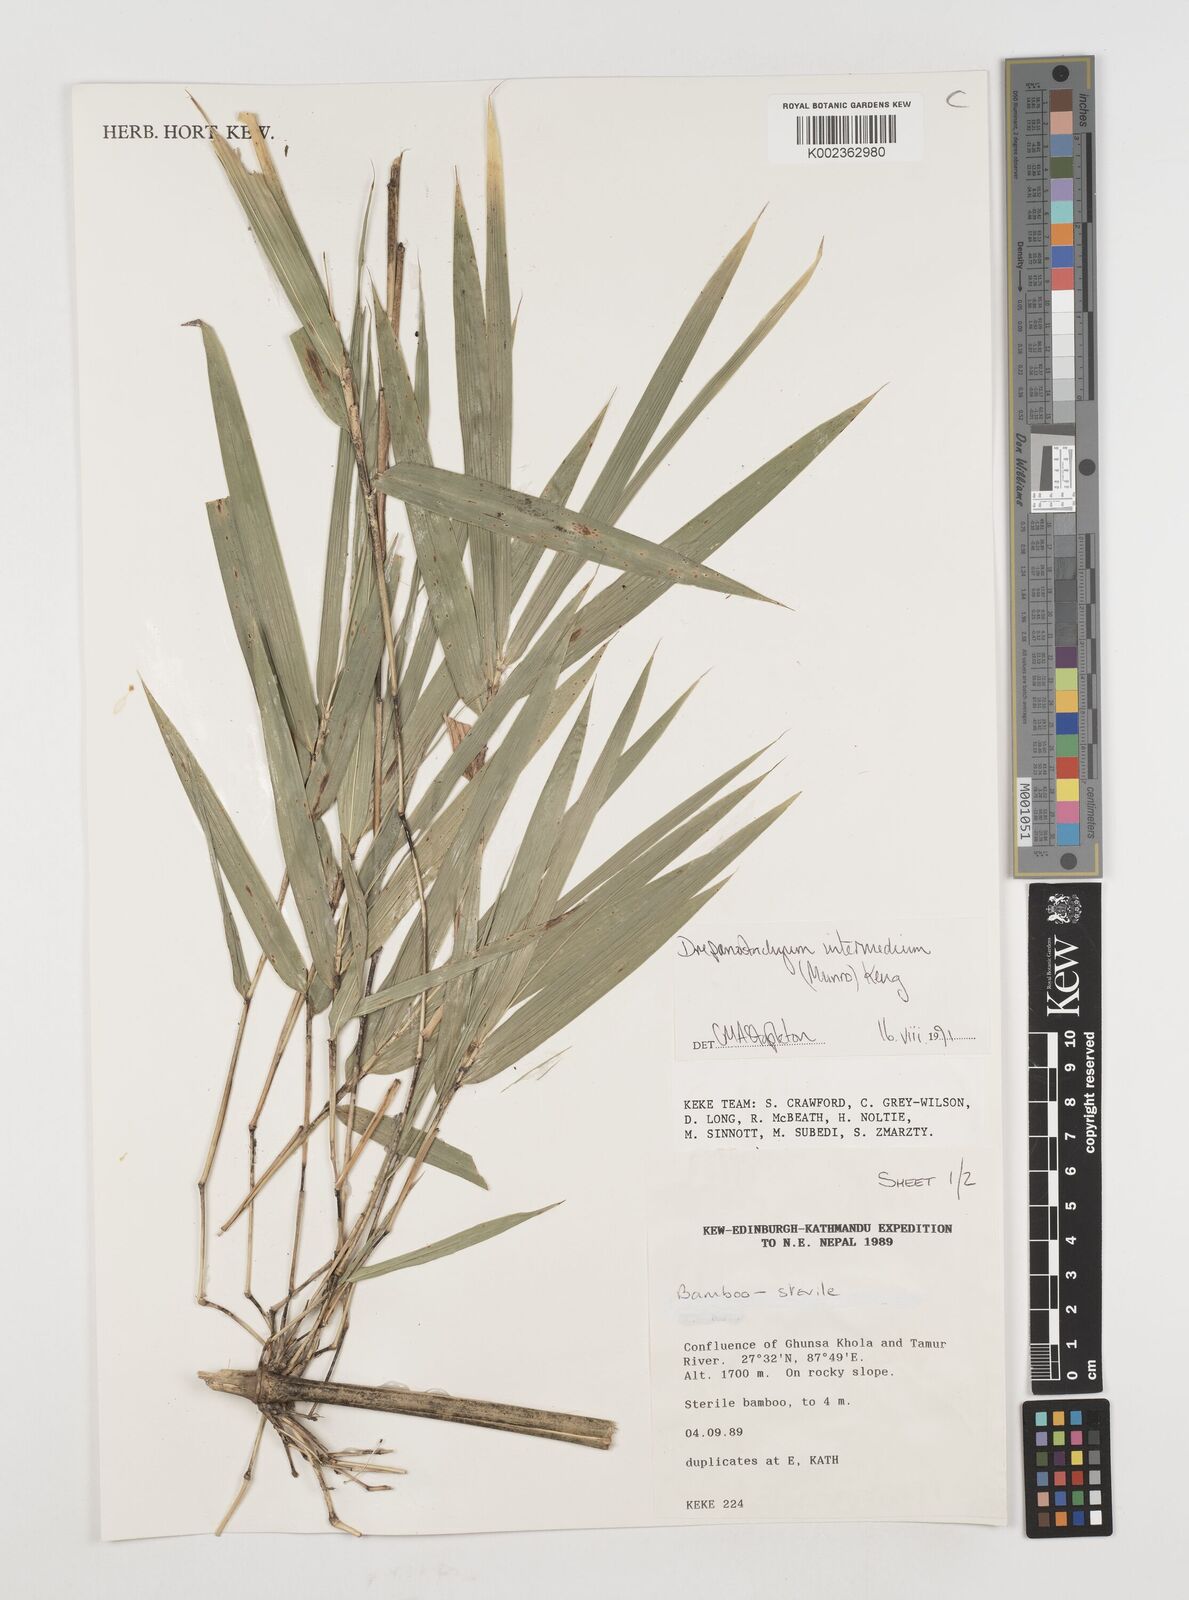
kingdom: Plantae
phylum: Tracheophyta
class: Liliopsida
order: Poales
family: Poaceae
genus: Drepanostachyum
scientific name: Drepanostachyum intermedium
